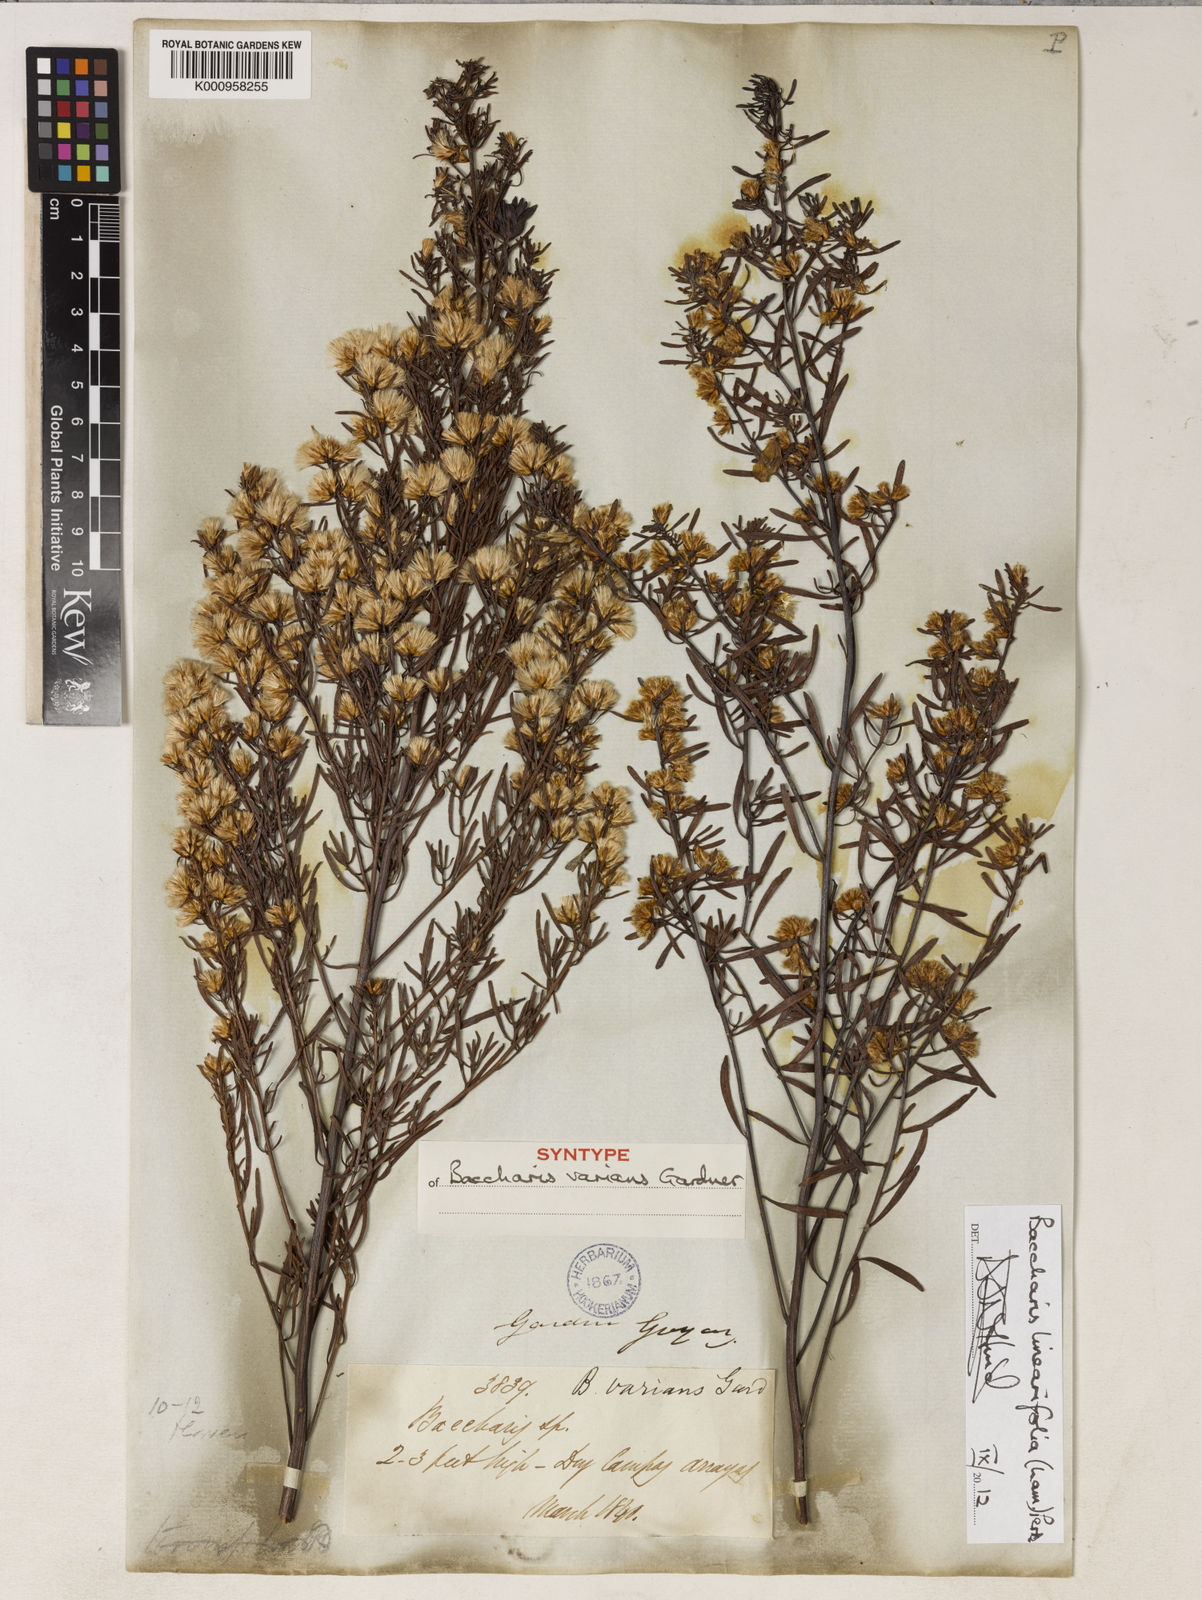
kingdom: Plantae
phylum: Tracheophyta
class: Magnoliopsida
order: Asterales
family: Asteraceae
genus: Baccharis
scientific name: Baccharis linearifolia
